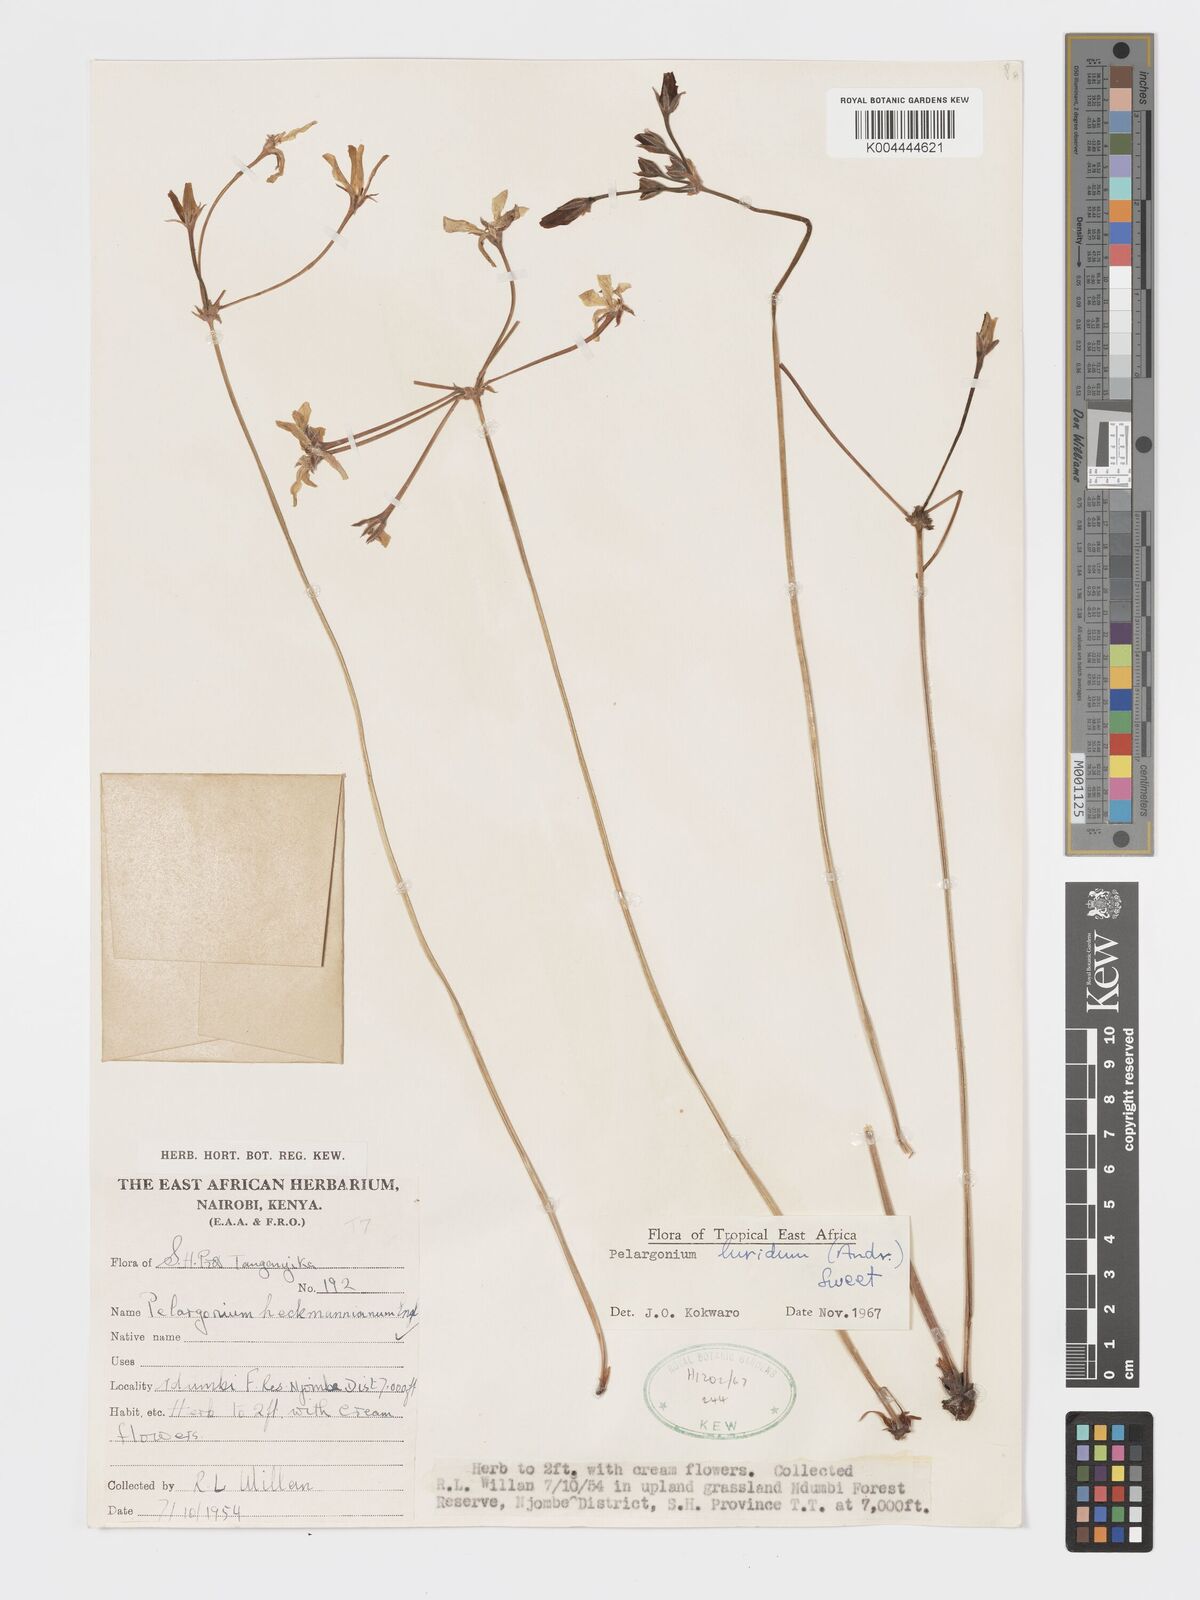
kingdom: Plantae
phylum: Tracheophyta
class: Magnoliopsida
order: Geraniales
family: Geraniaceae
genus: Pelargonium
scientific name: Pelargonium luridum
